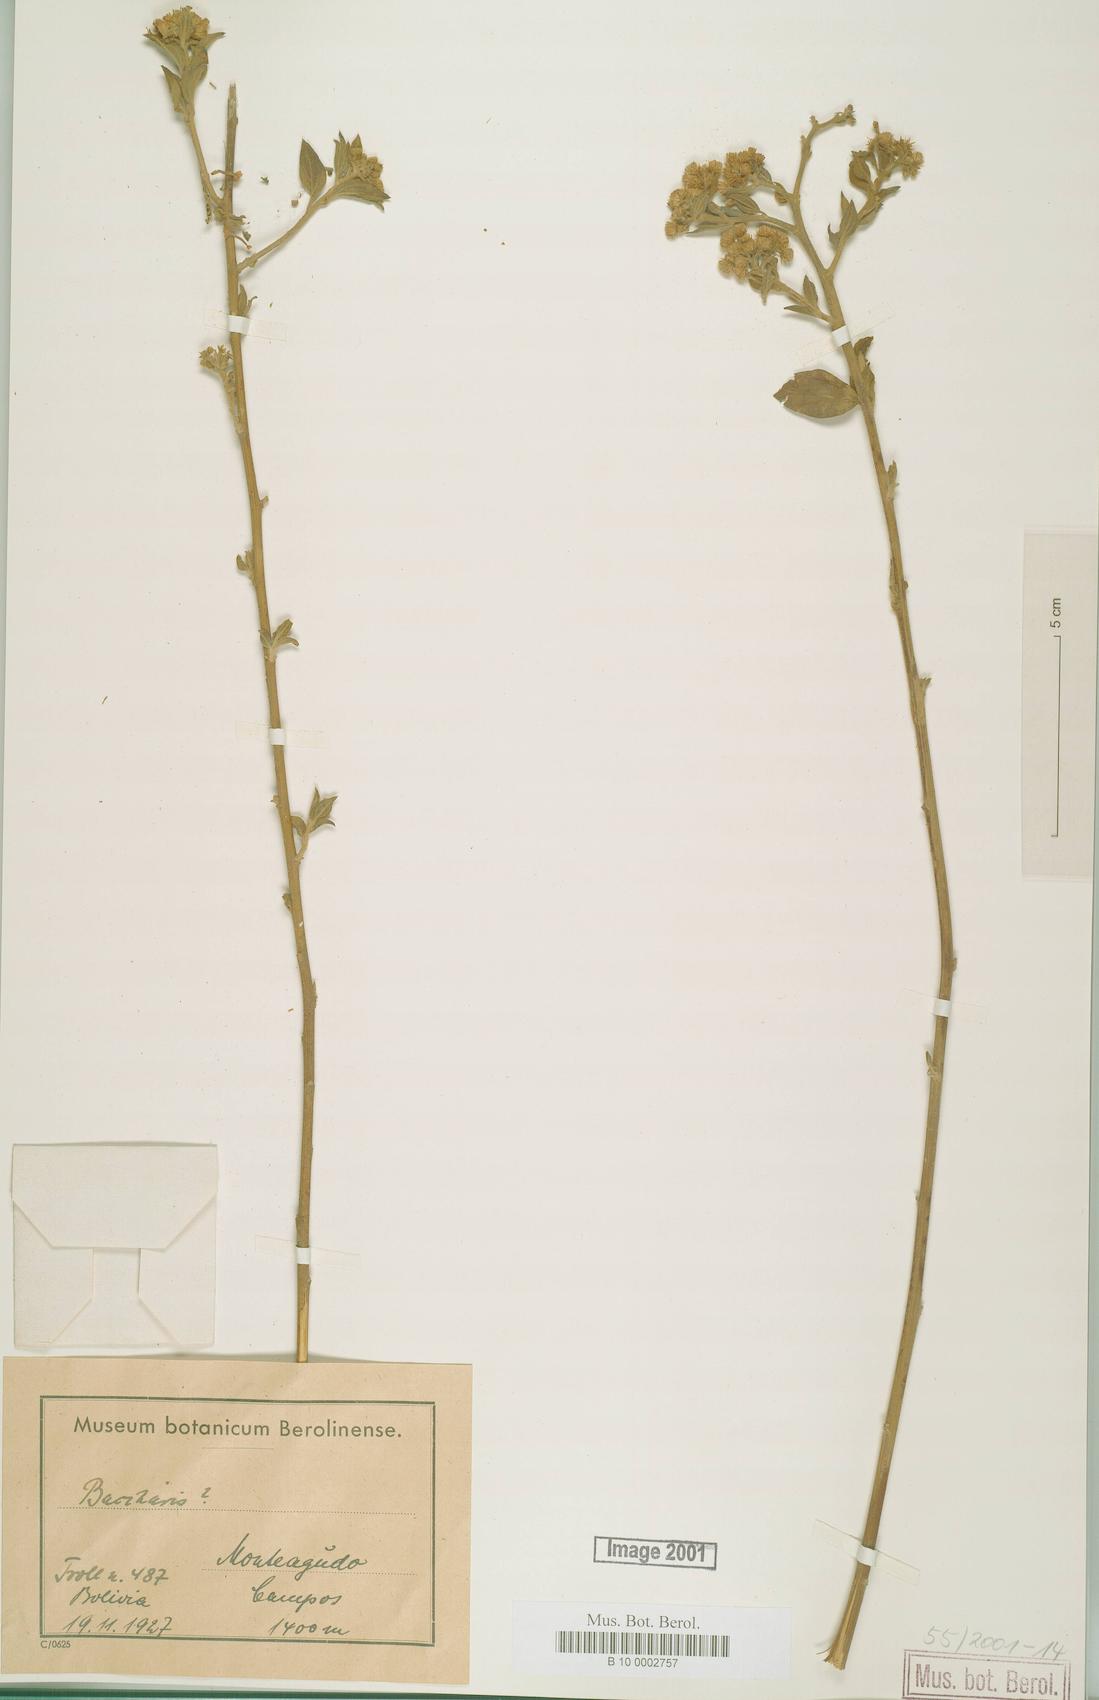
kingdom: Plantae
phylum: Tracheophyta
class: Magnoliopsida
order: Asterales
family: Asteraceae
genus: Baccharis
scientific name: Baccharis
